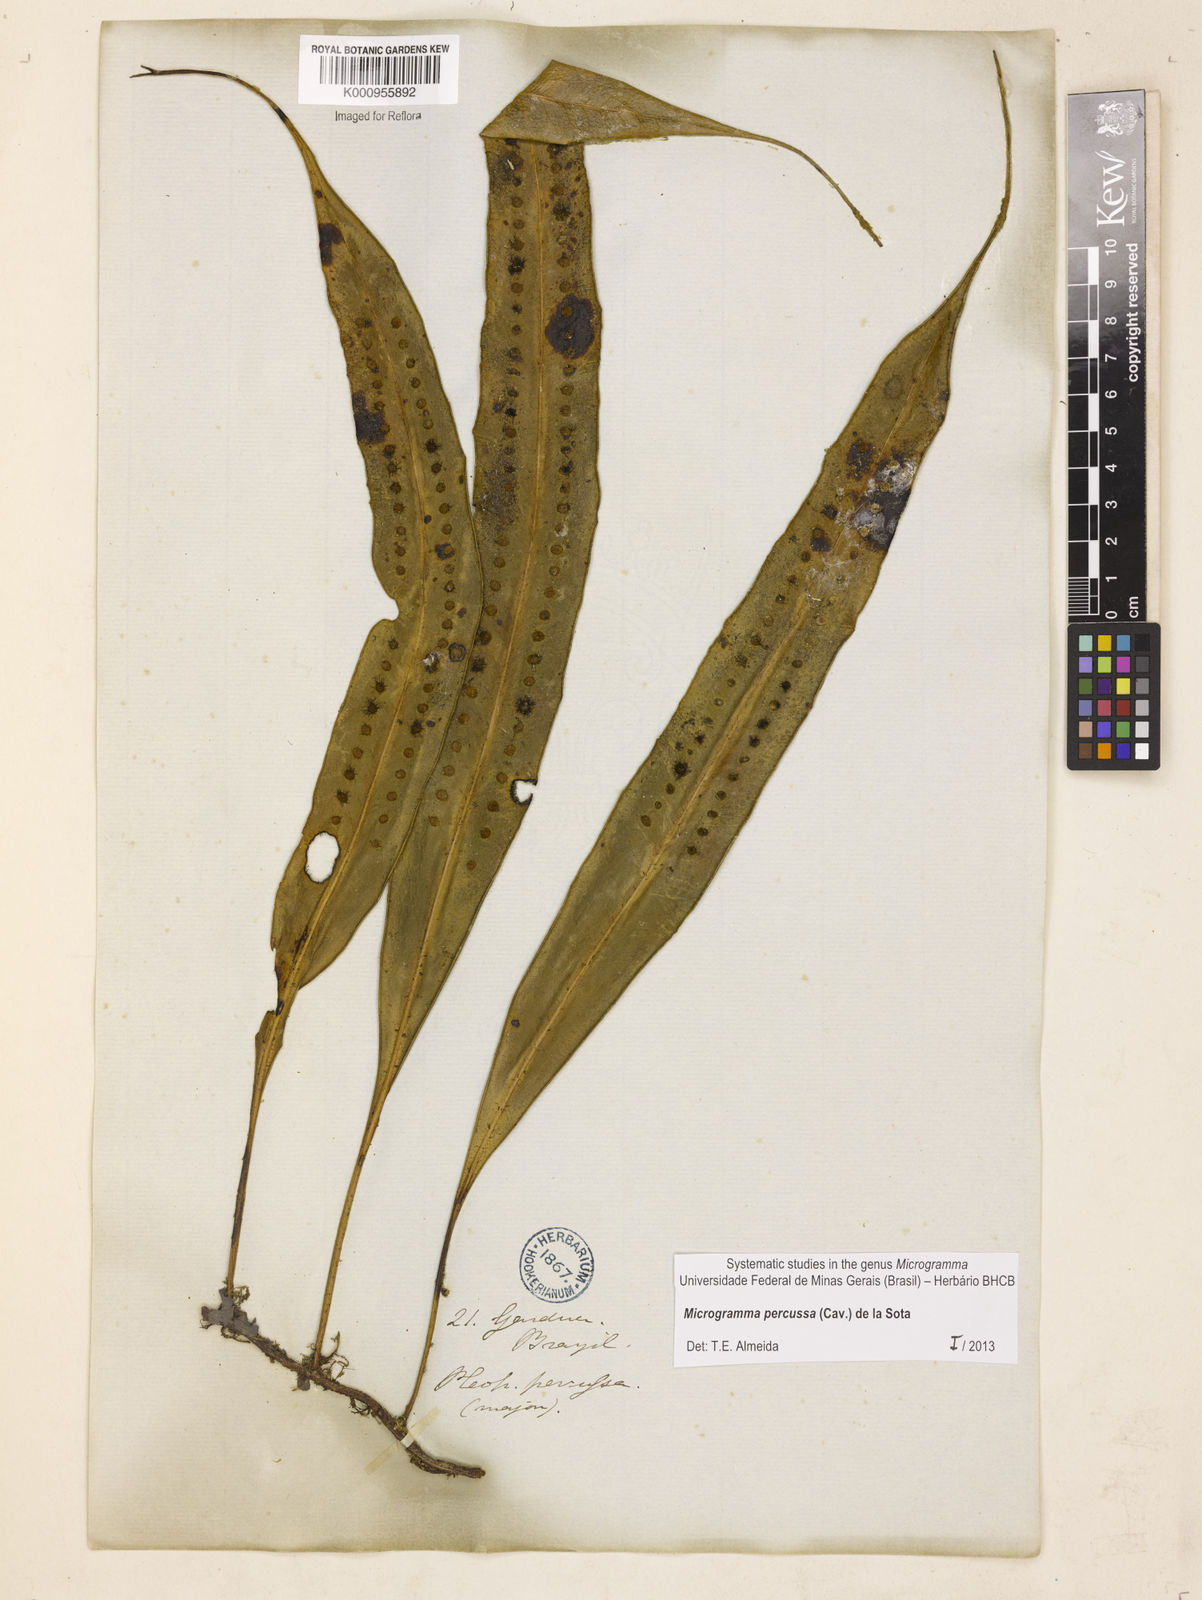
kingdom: Plantae
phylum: Tracheophyta
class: Polypodiopsida
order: Polypodiales
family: Polypodiaceae
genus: Microgramma
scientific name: Microgramma percussa
